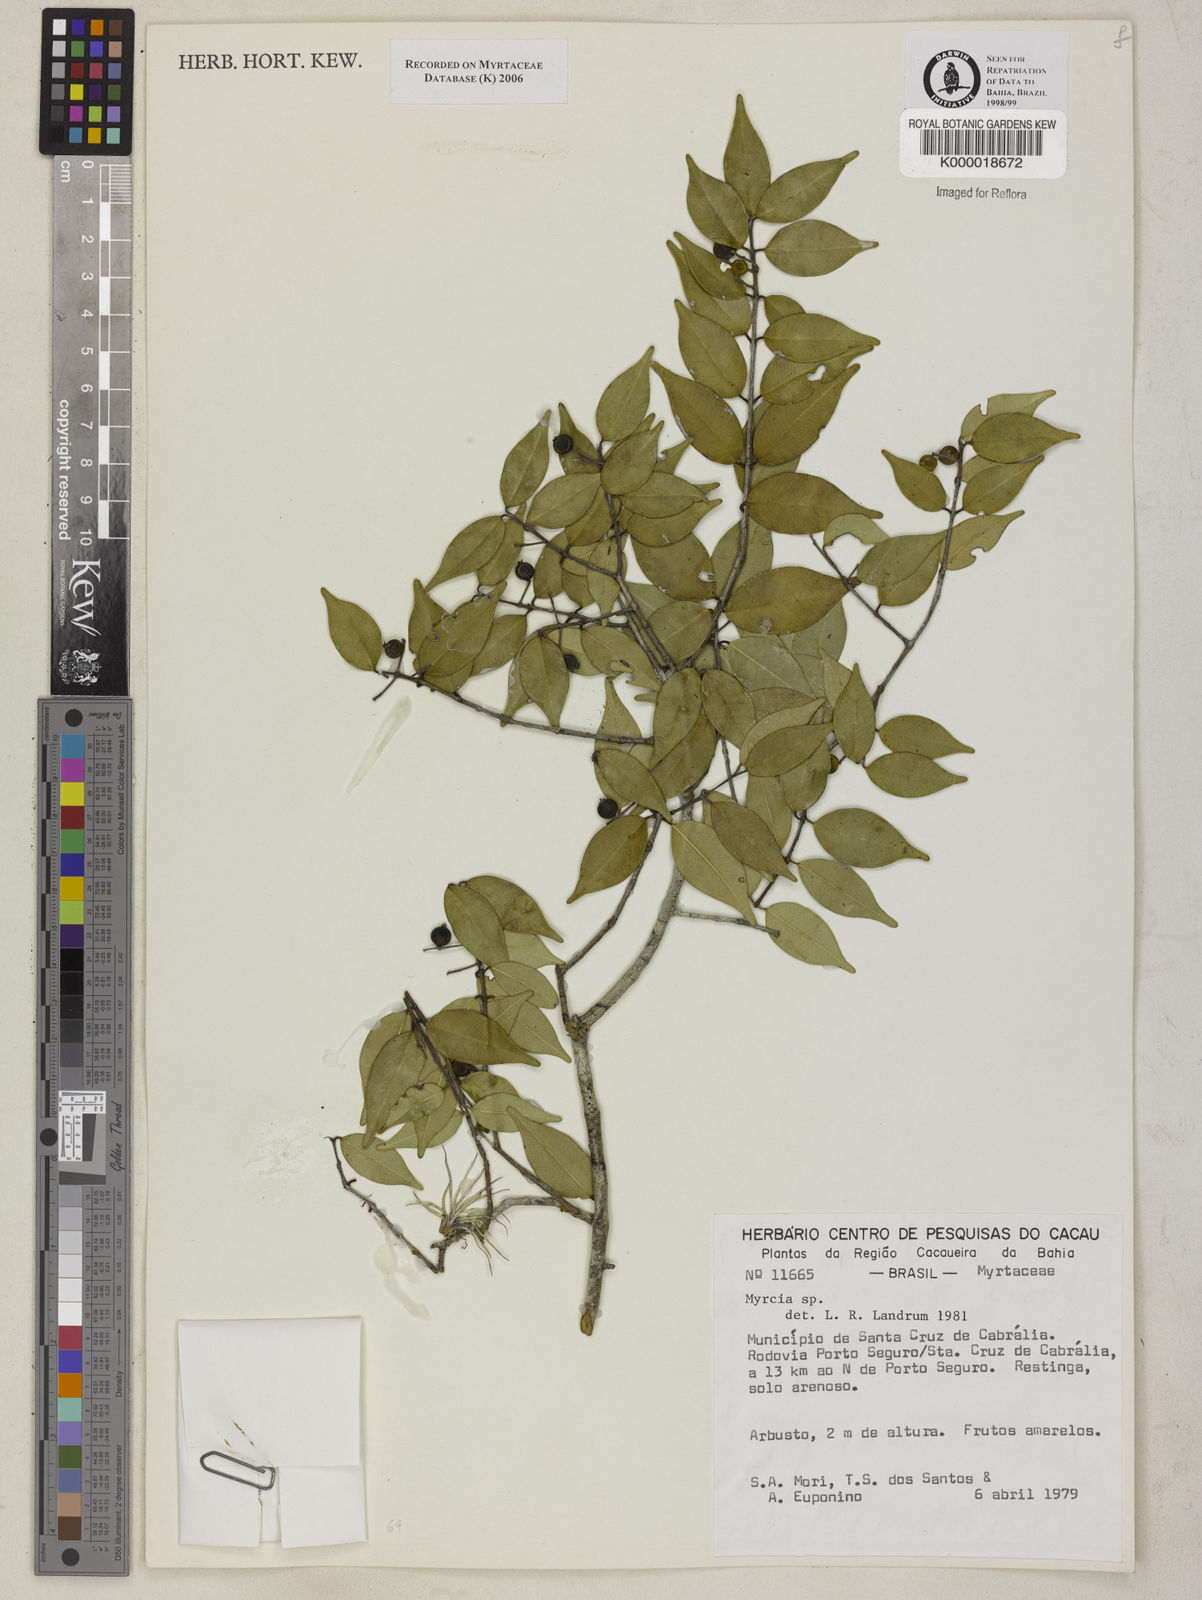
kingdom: Plantae
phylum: Tracheophyta
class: Magnoliopsida
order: Myrtales
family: Myrtaceae
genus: Myrcia
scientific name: Myrcia
